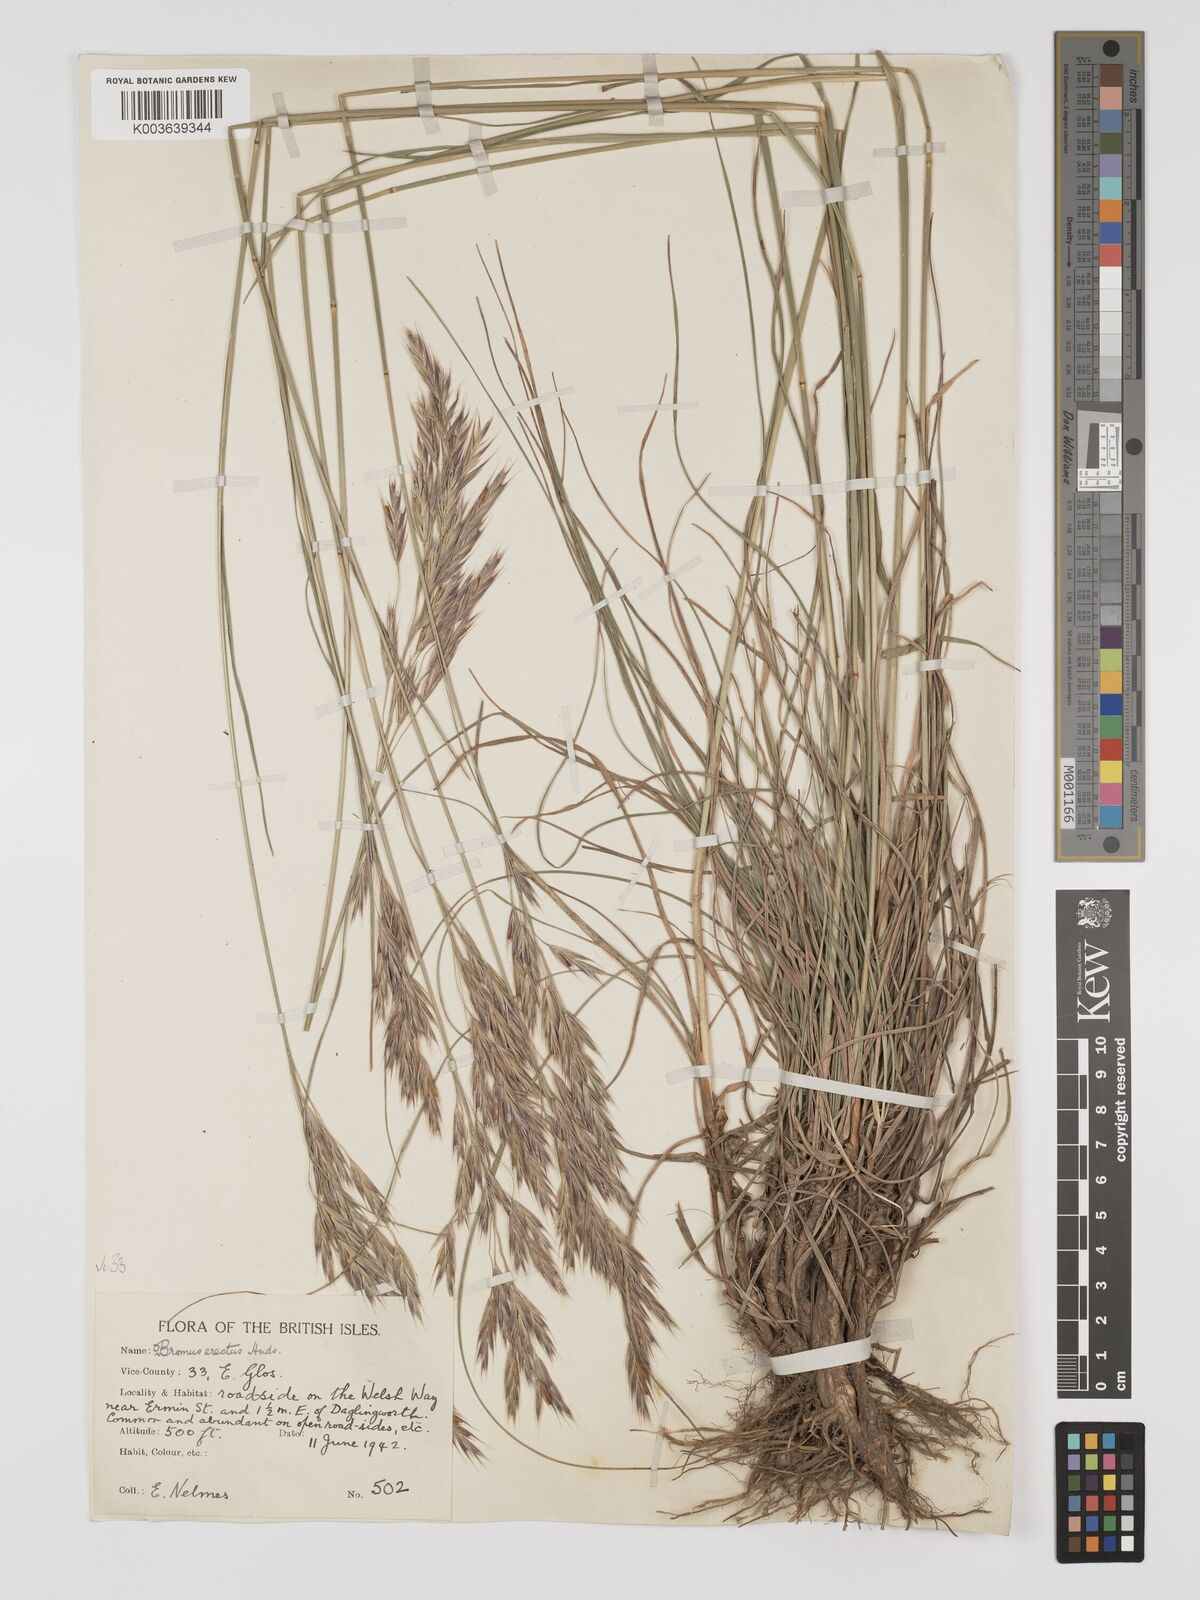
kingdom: Plantae
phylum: Tracheophyta
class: Liliopsida
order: Poales
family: Poaceae
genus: Bromus
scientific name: Bromus erectus
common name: Erect brome
